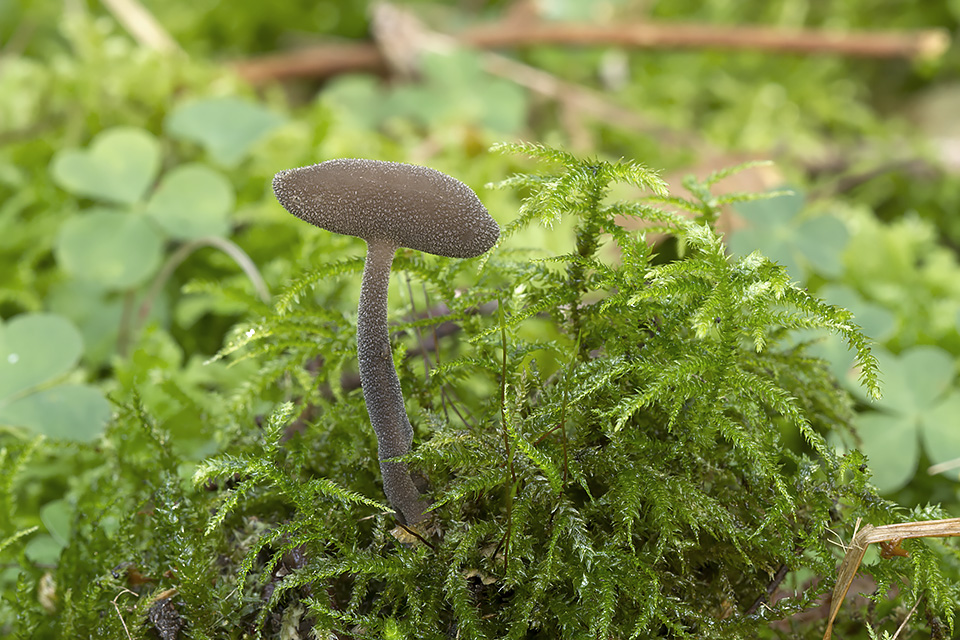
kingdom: Fungi
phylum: Ascomycota
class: Pezizomycetes
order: Pezizales
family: Helvellaceae
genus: Helvella
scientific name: Helvella fibrosa
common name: dunstokket foldhat
